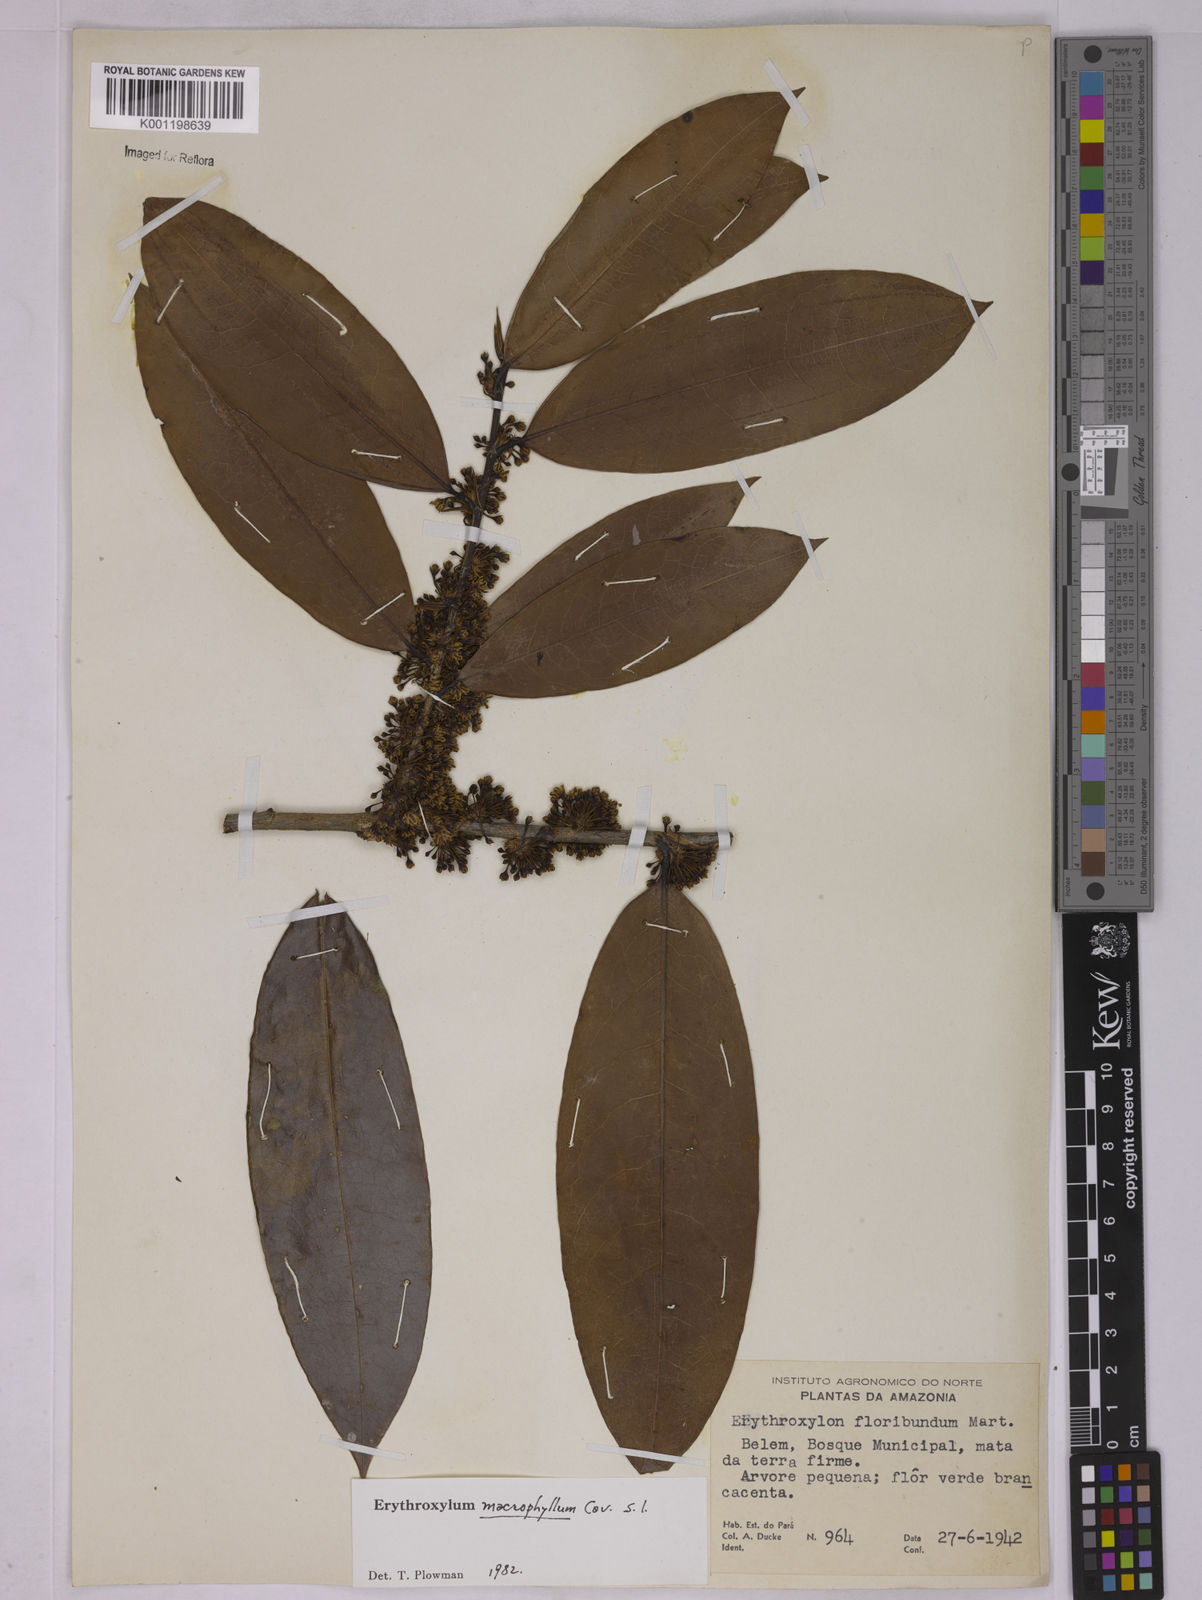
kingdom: Plantae
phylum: Tracheophyta
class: Magnoliopsida
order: Malpighiales
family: Erythroxylaceae
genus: Erythroxylum
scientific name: Erythroxylum macrophyllum
